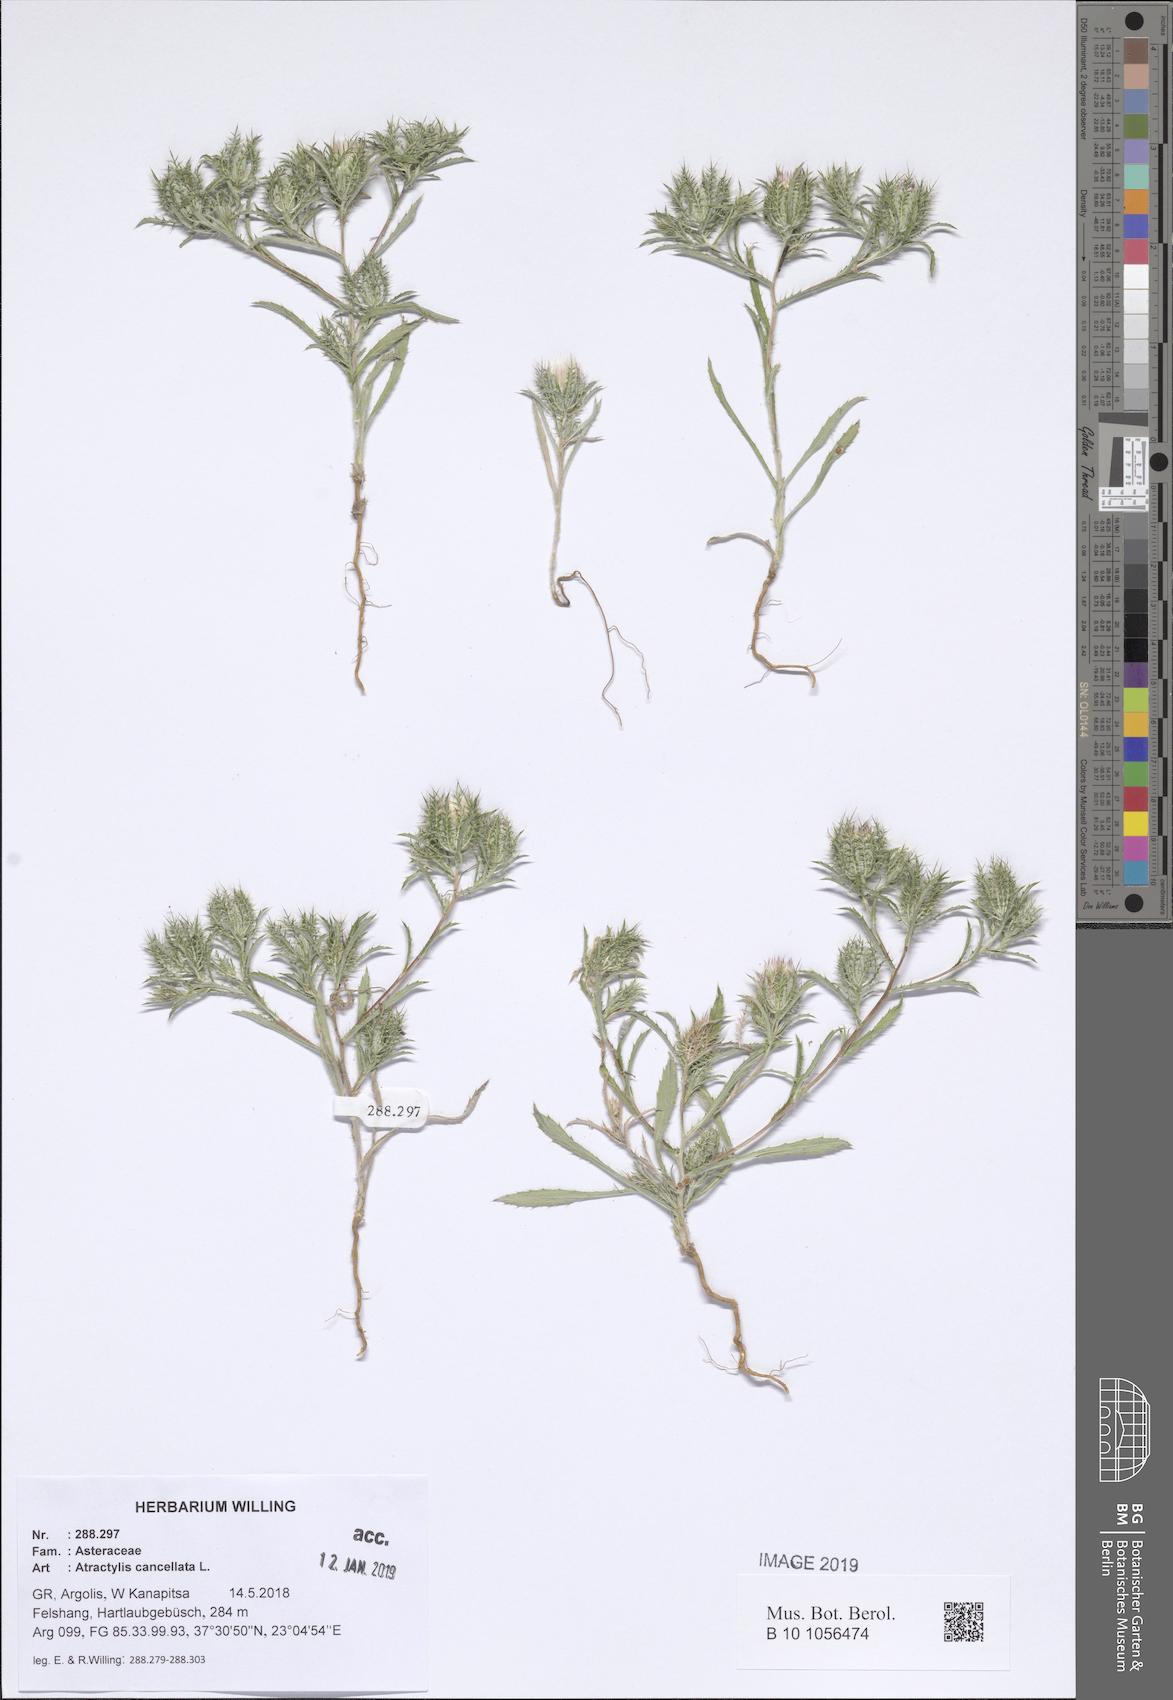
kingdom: Plantae
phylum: Tracheophyta
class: Magnoliopsida
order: Asterales
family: Asteraceae
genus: Atractylis
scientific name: Atractylis cancellata
